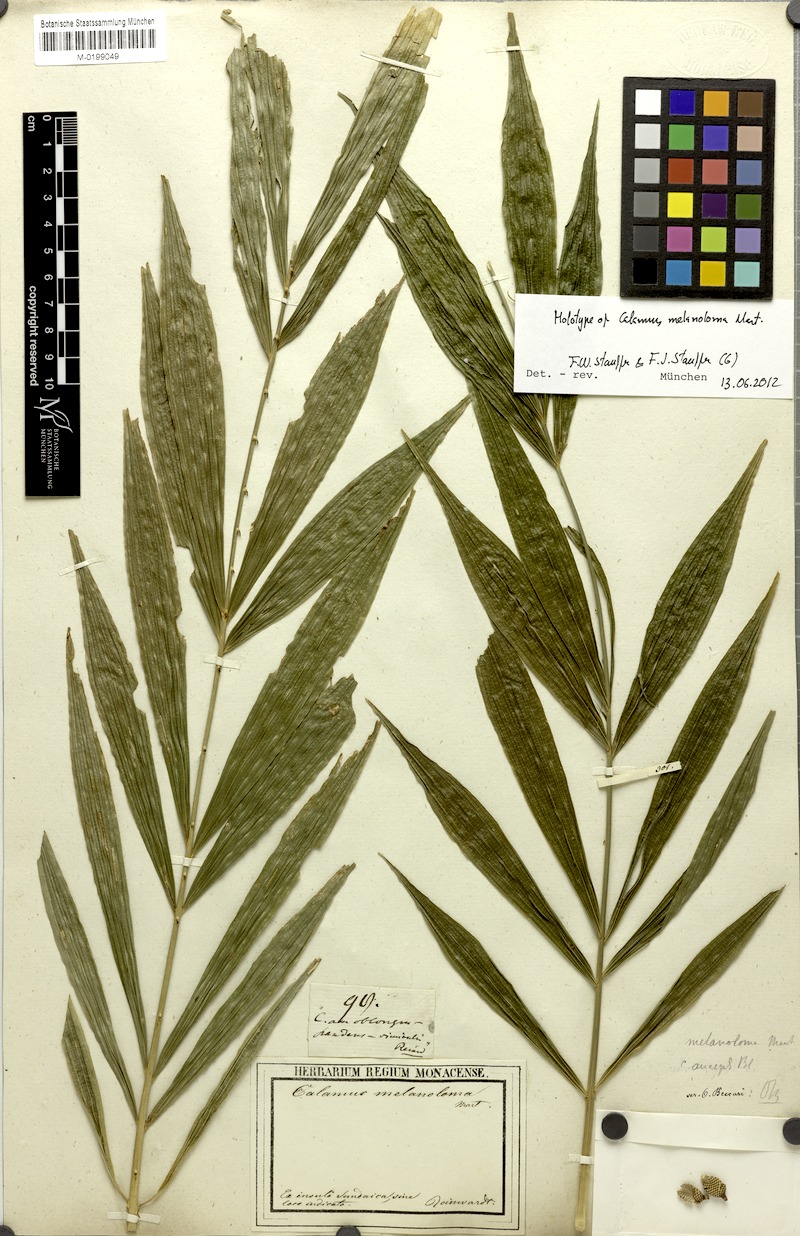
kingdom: Plantae
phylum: Tracheophyta
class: Liliopsida
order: Arecales
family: Arecaceae
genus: Calamus
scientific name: Calamus melanoloma
